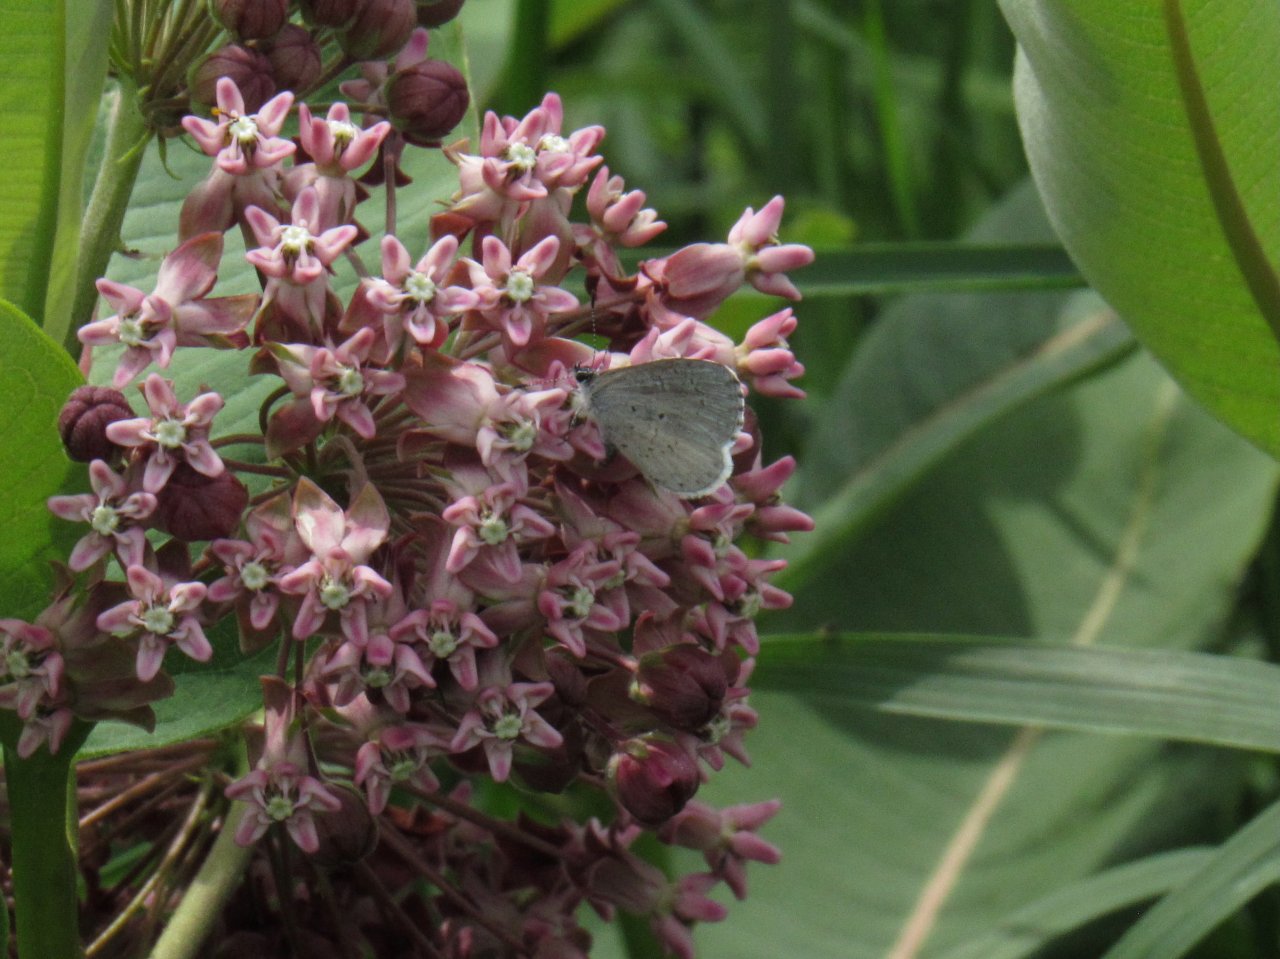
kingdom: Animalia
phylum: Arthropoda
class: Insecta
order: Lepidoptera
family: Lycaenidae
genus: Celastrina
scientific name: Celastrina
